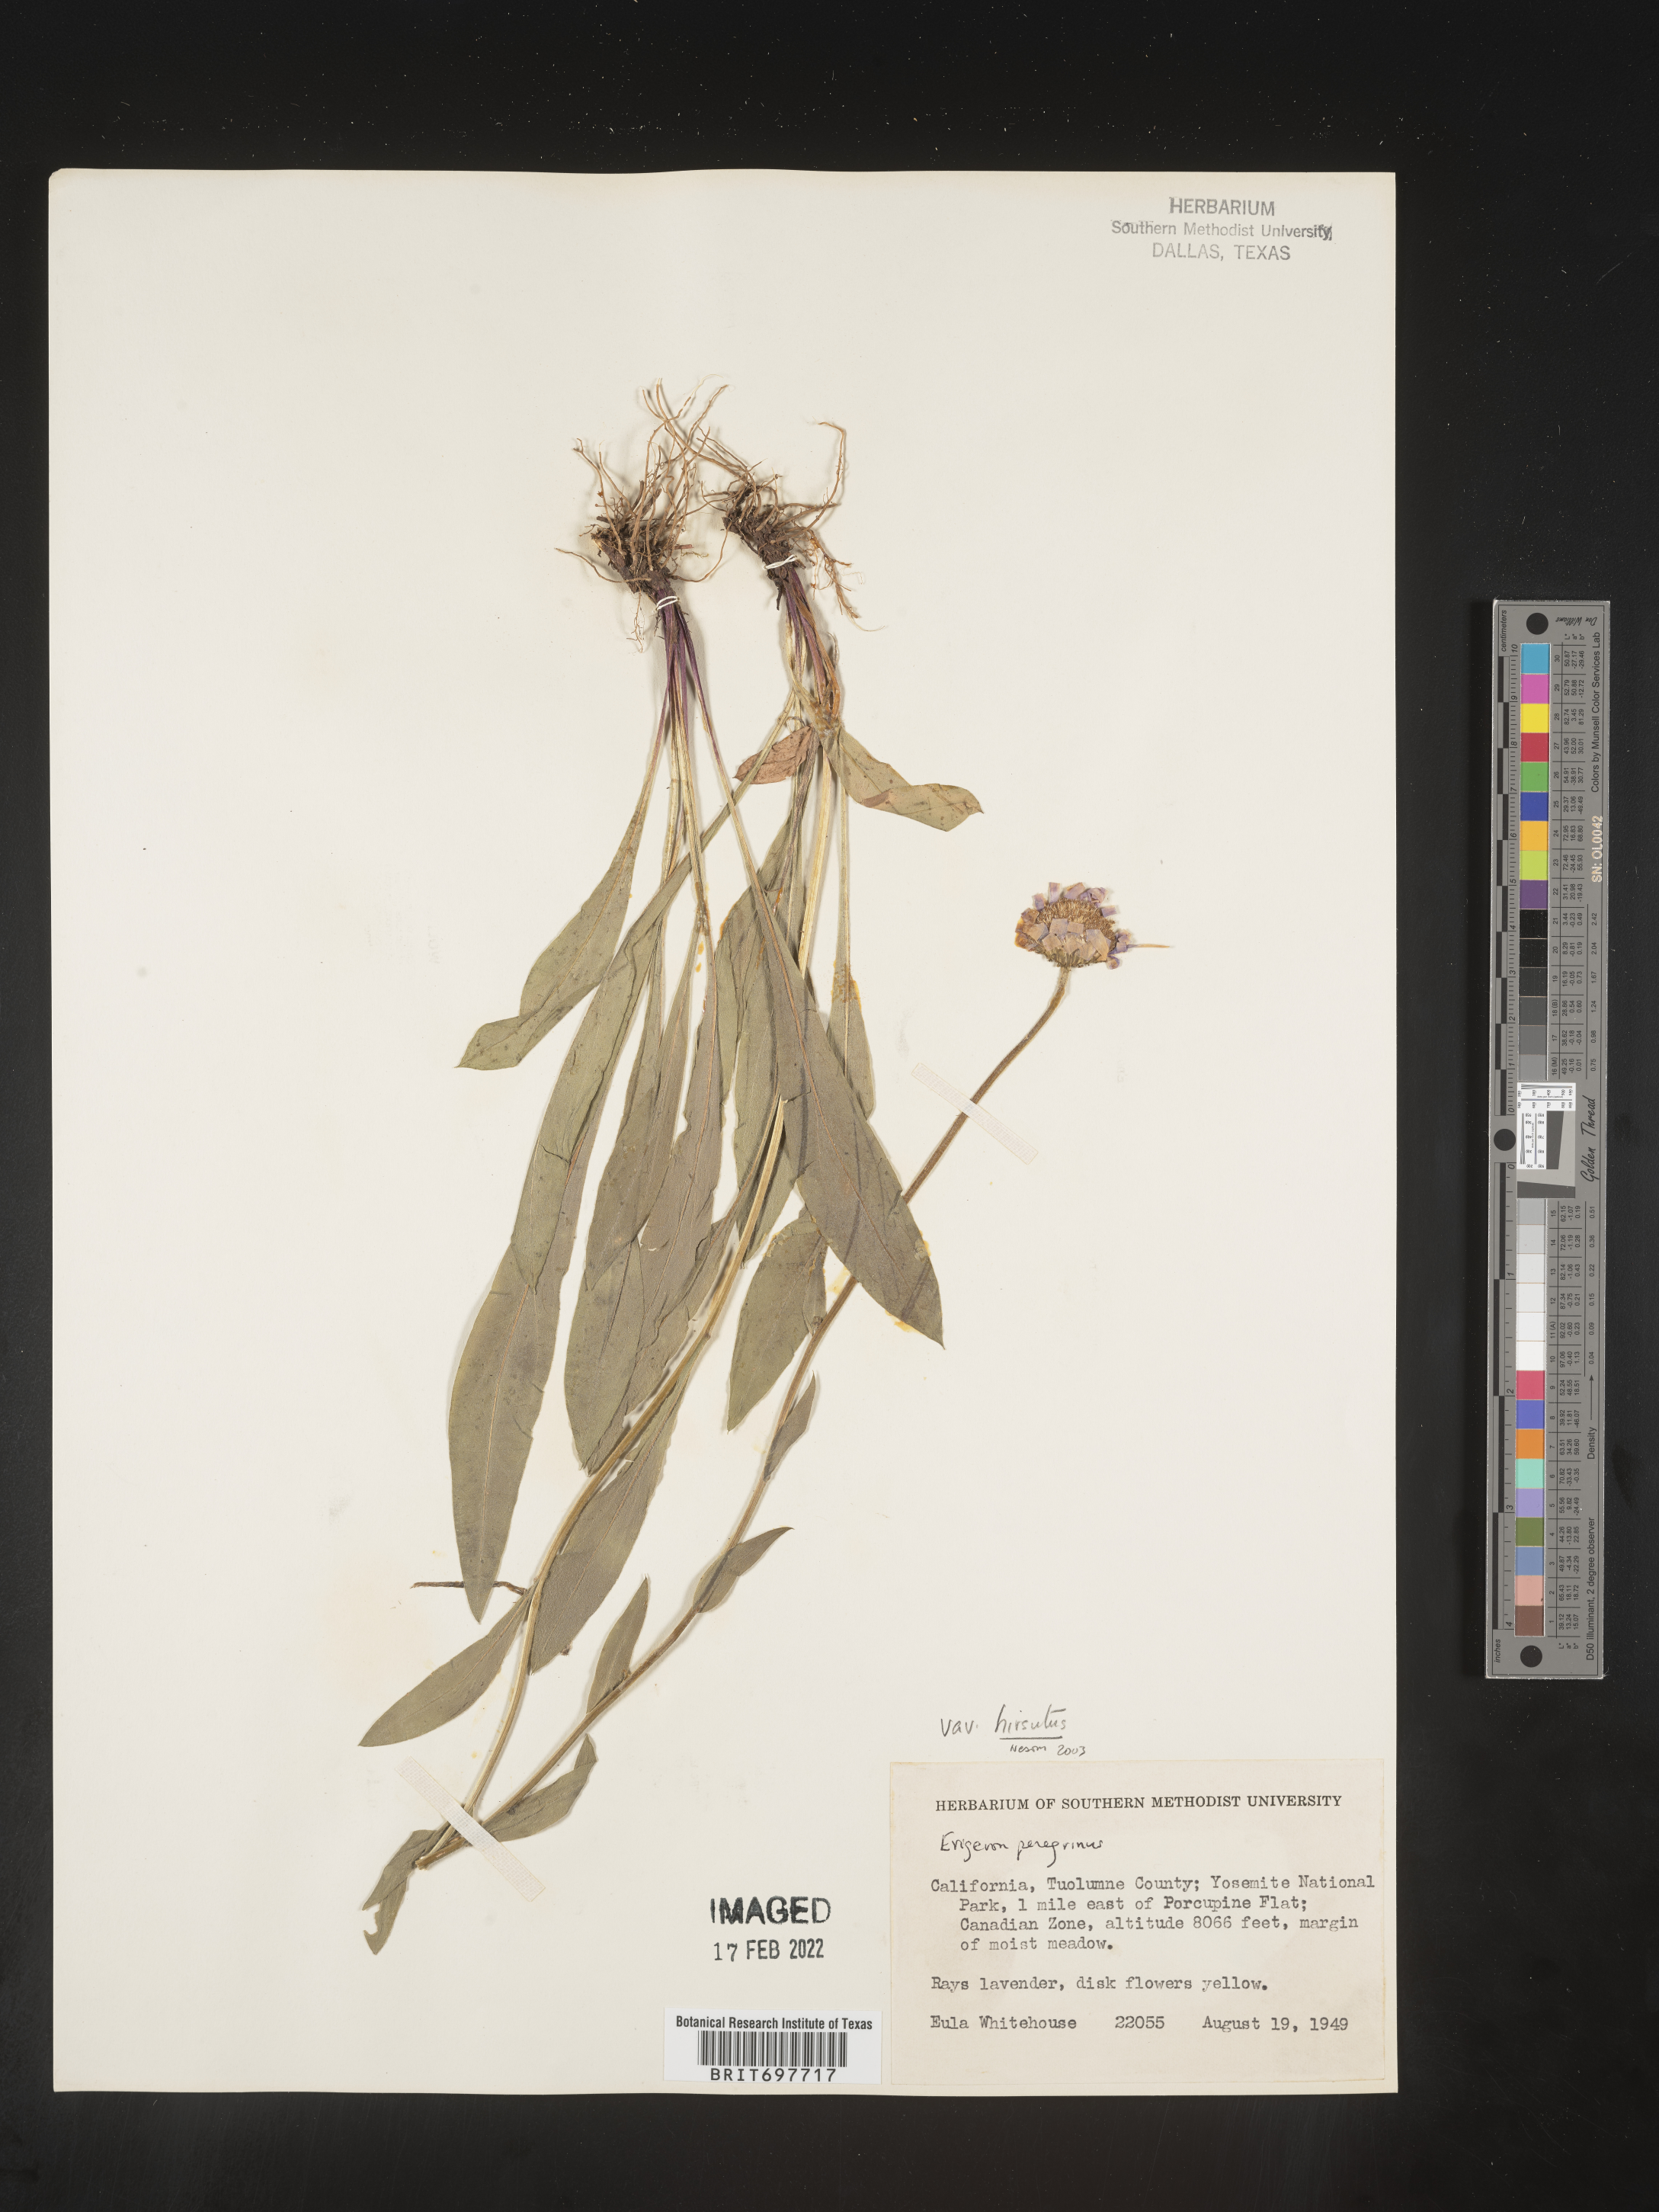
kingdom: Plantae
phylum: Tracheophyta
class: Magnoliopsida
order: Asterales
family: Asteraceae
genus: Erigeron
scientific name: Erigeron glacialis
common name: Subalpine fleabane
